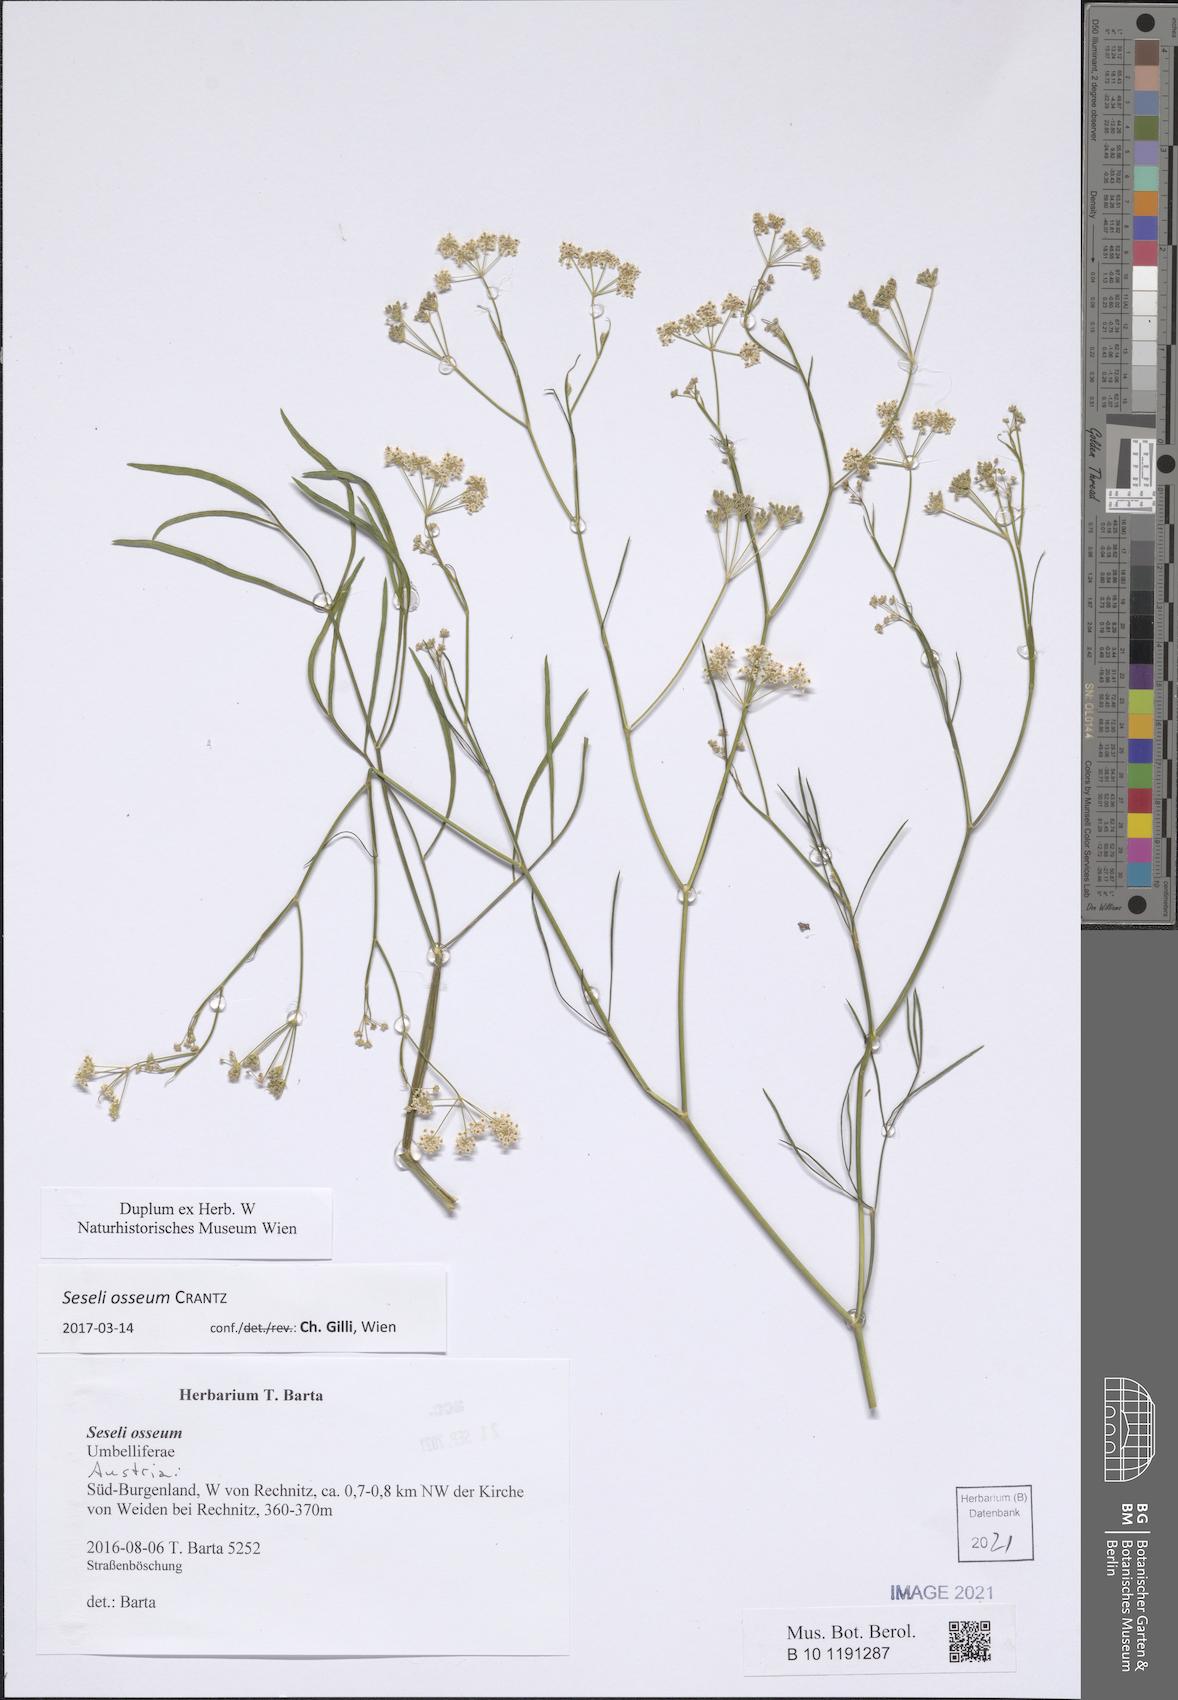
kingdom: Plantae
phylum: Tracheophyta
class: Magnoliopsida
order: Apiales
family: Apiaceae
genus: Seseli
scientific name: Seseli osseum
